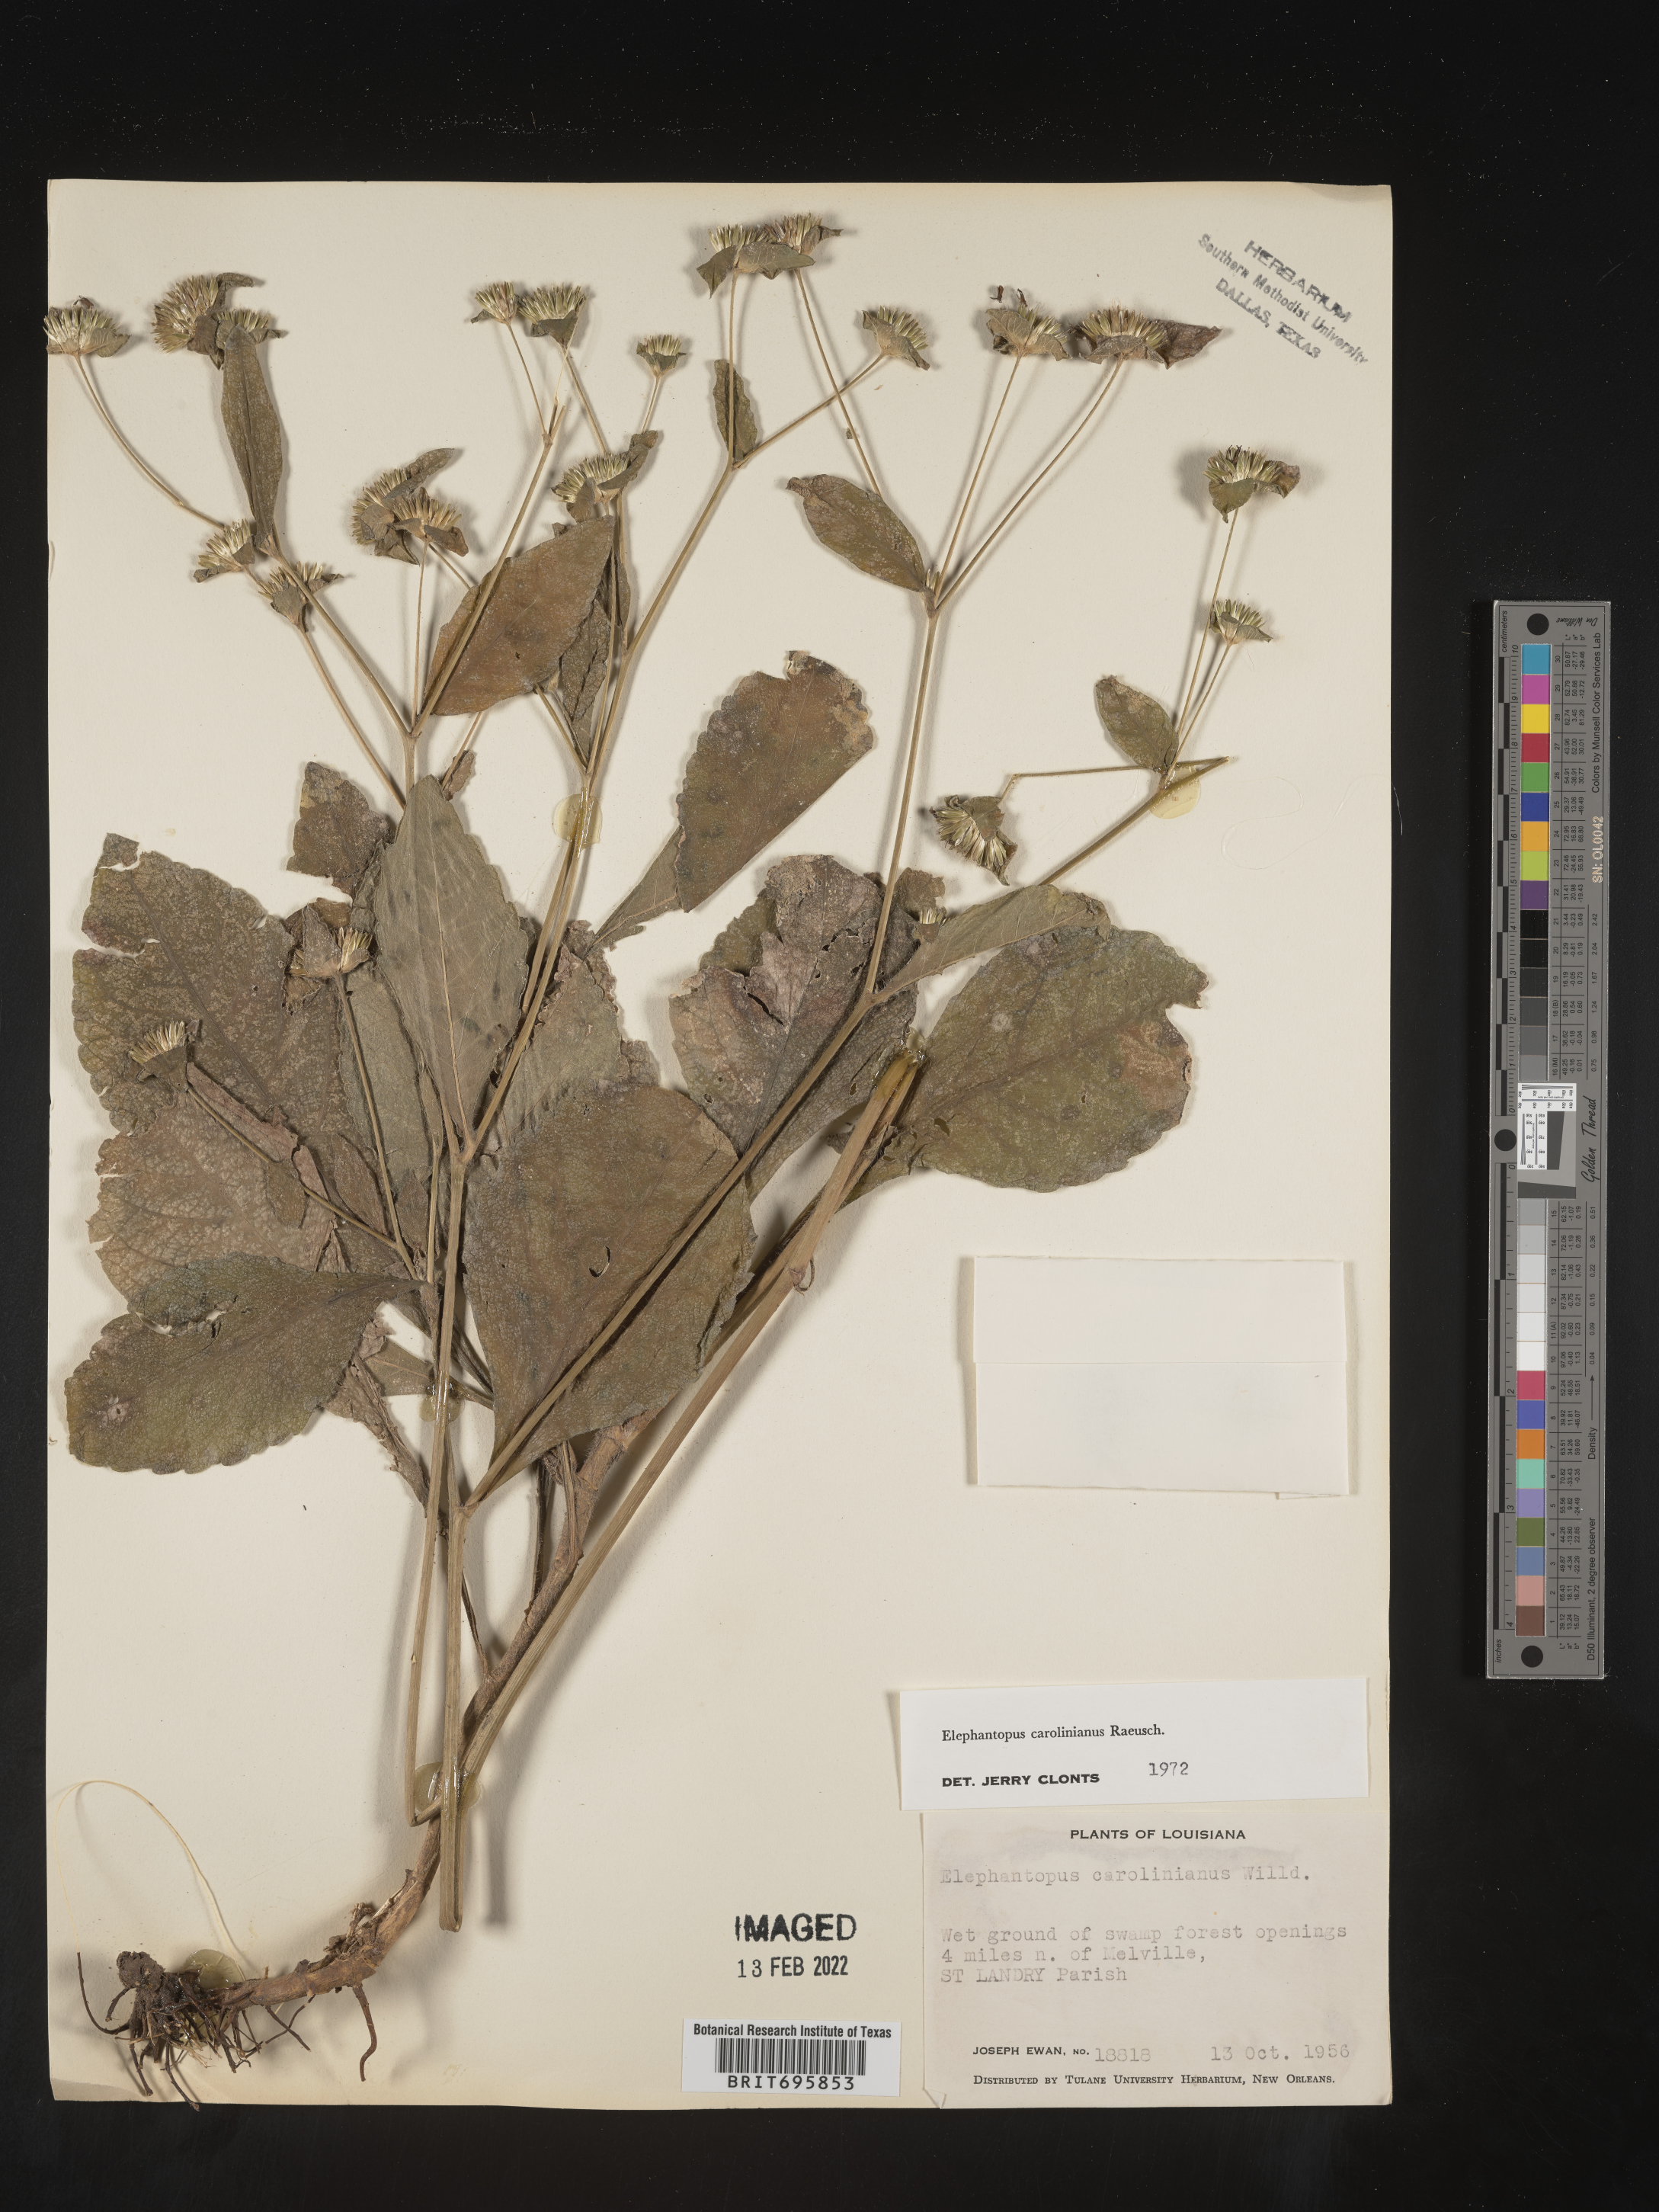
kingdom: Plantae
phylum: Tracheophyta
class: Magnoliopsida
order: Asterales
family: Asteraceae
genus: Elephantopus
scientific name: Elephantopus carolinianus
